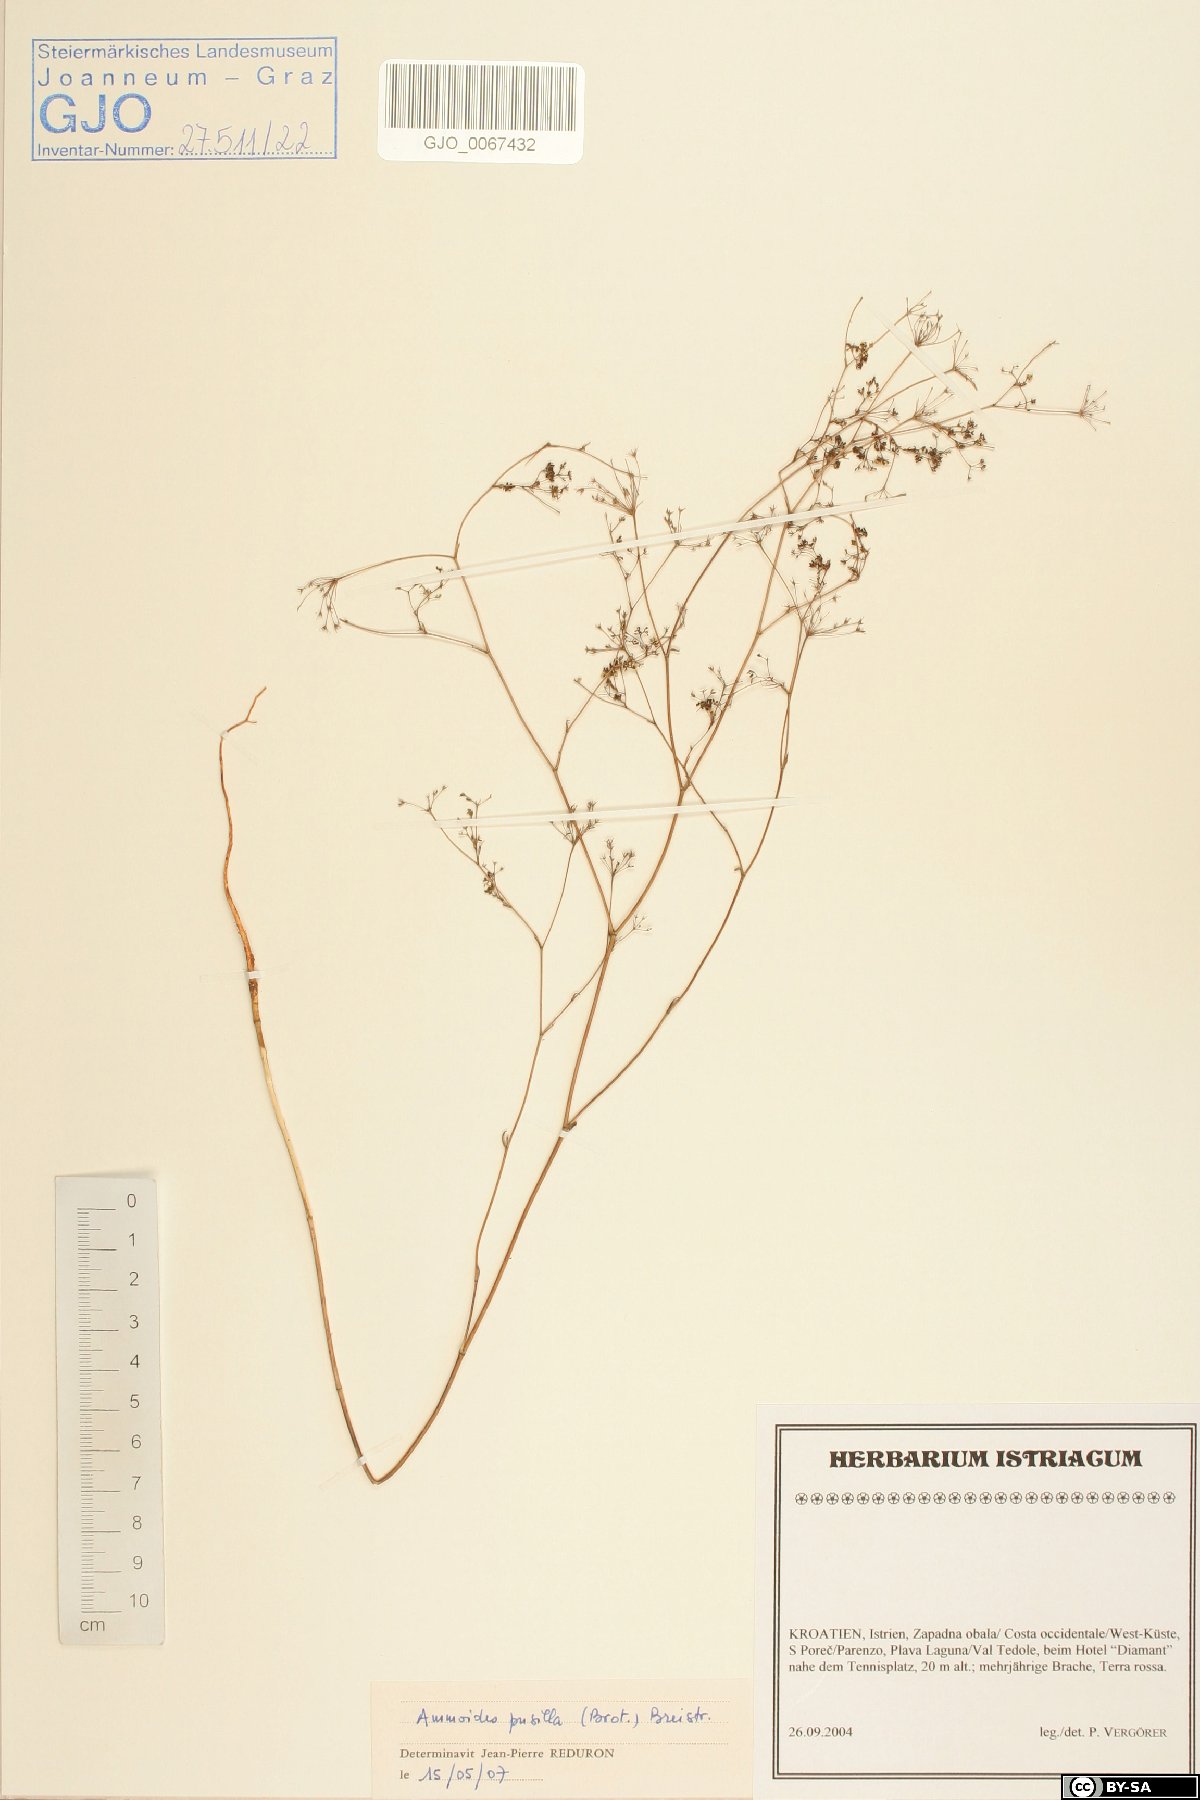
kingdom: Plantae
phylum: Tracheophyta
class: Magnoliopsida
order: Apiales
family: Apiaceae
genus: Ammoides
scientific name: Ammoides pusilla
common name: Cerfolium
